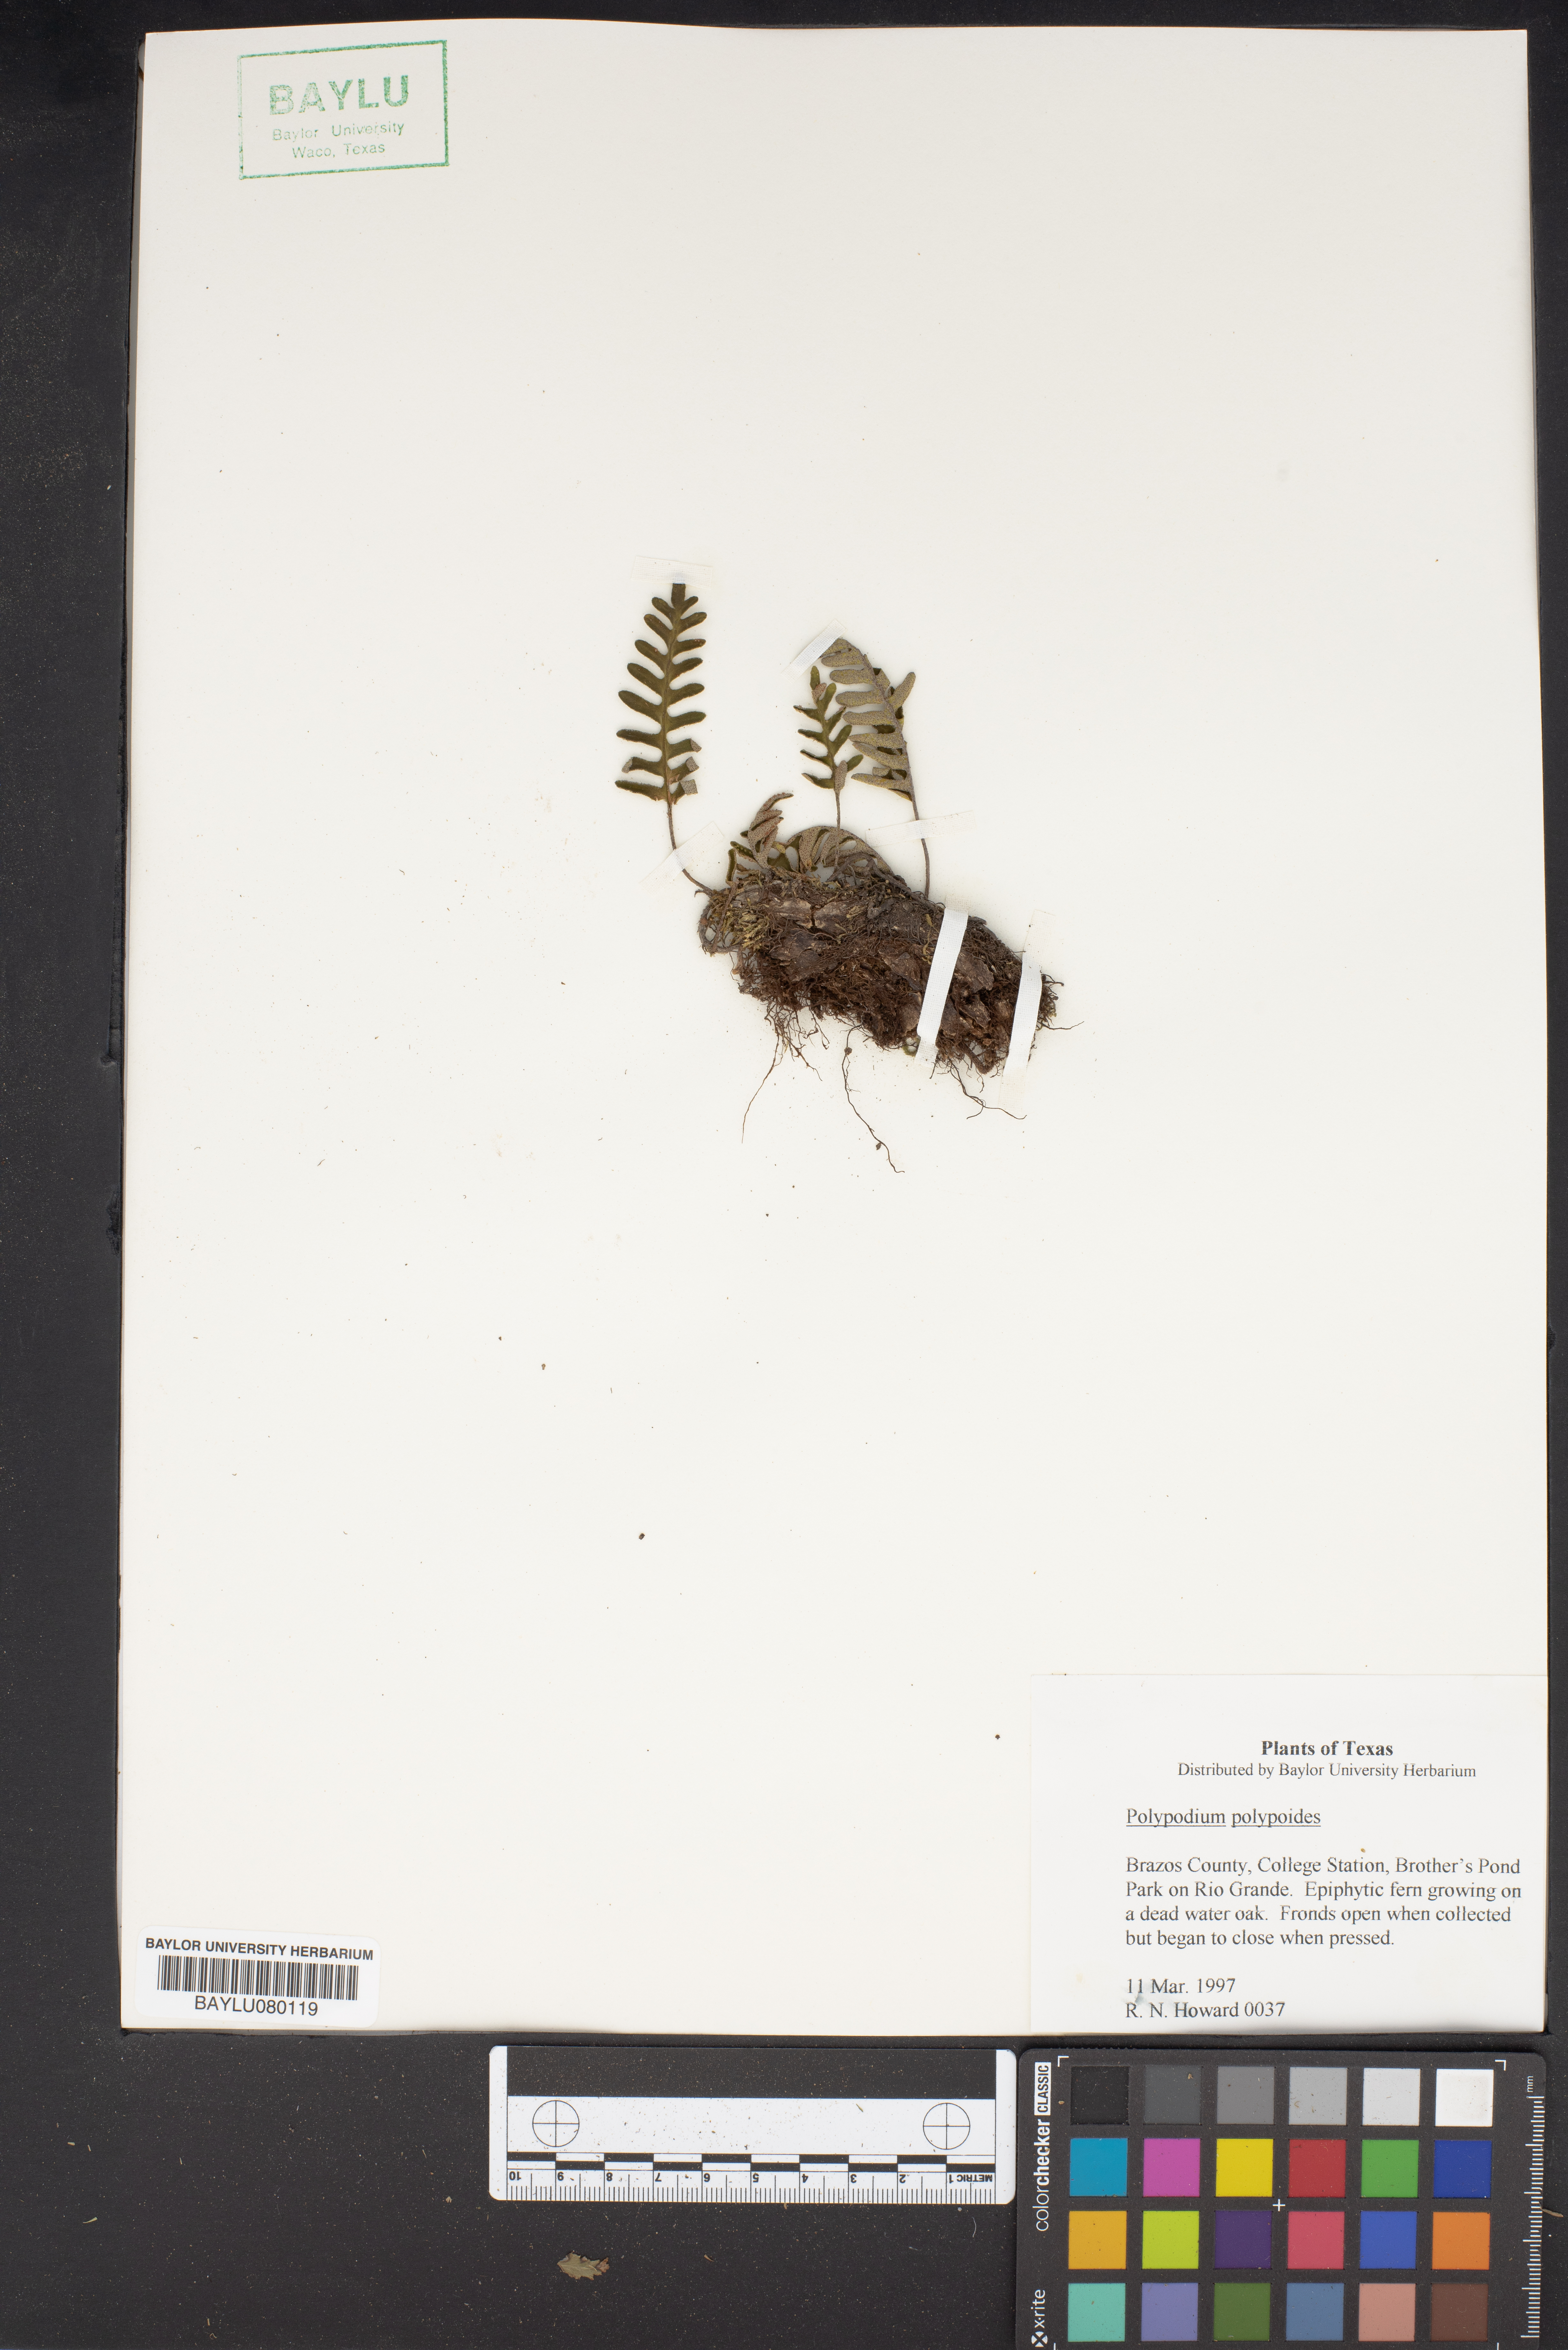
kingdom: Plantae
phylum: Tracheophyta
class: Polypodiopsida
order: Polypodiales
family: Polypodiaceae
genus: Pleopeltis
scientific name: Pleopeltis polypodioides
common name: Resurrection fern
